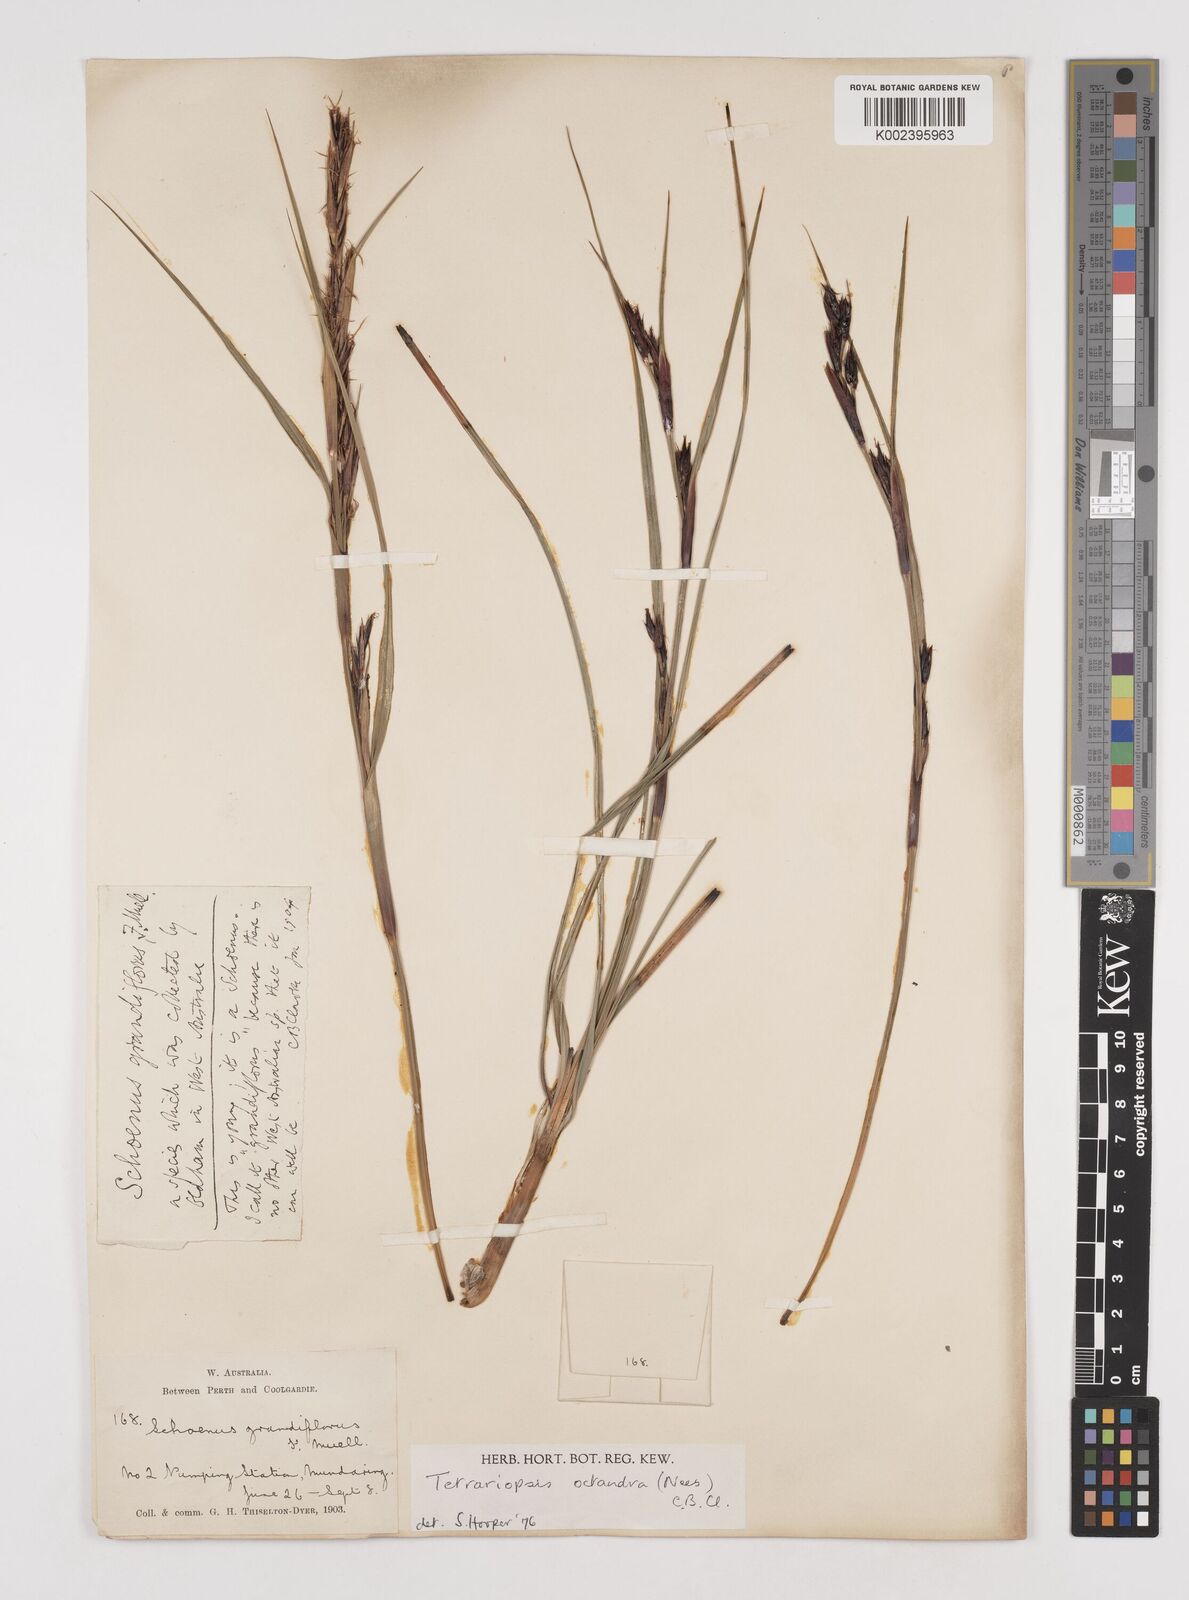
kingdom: Plantae
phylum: Tracheophyta
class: Liliopsida
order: Poales
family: Cyperaceae
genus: Tetraria
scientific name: Tetraria octandra
